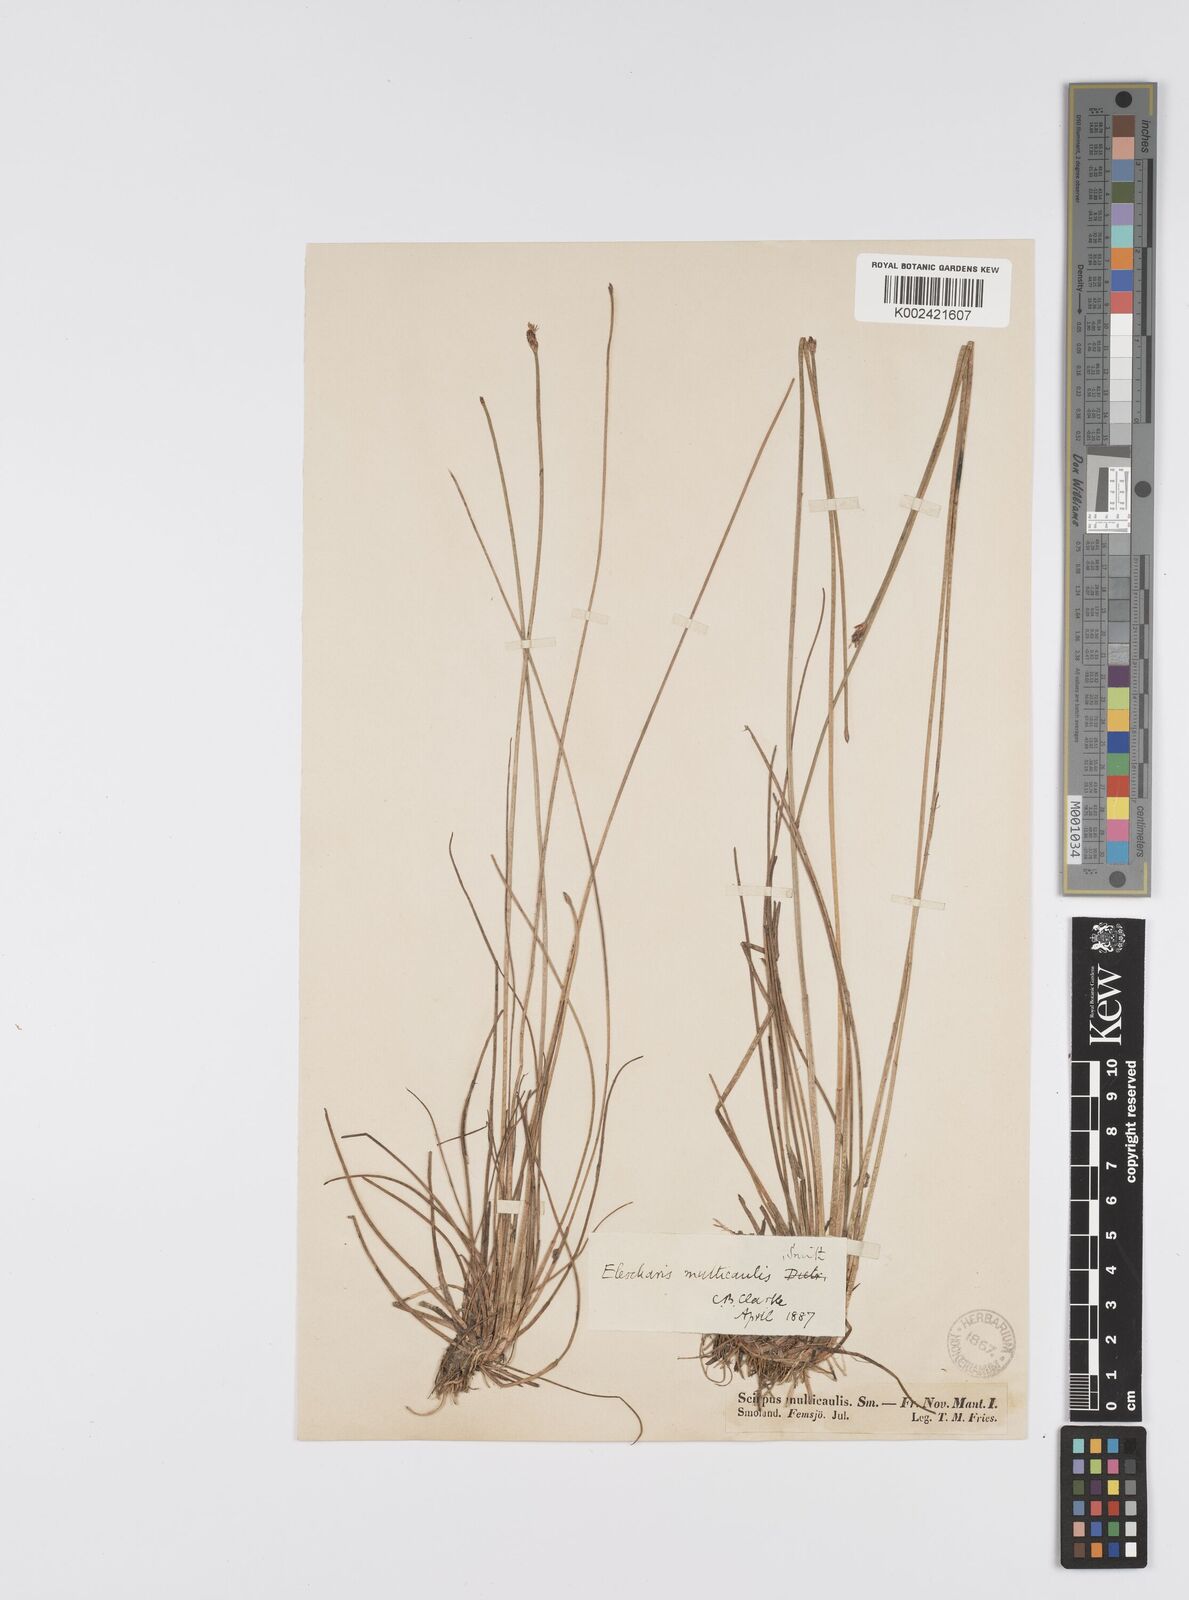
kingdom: Plantae
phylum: Tracheophyta
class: Liliopsida
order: Poales
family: Cyperaceae
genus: Eleocharis
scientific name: Eleocharis multicaulis
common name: Many-stalked spike-rush
